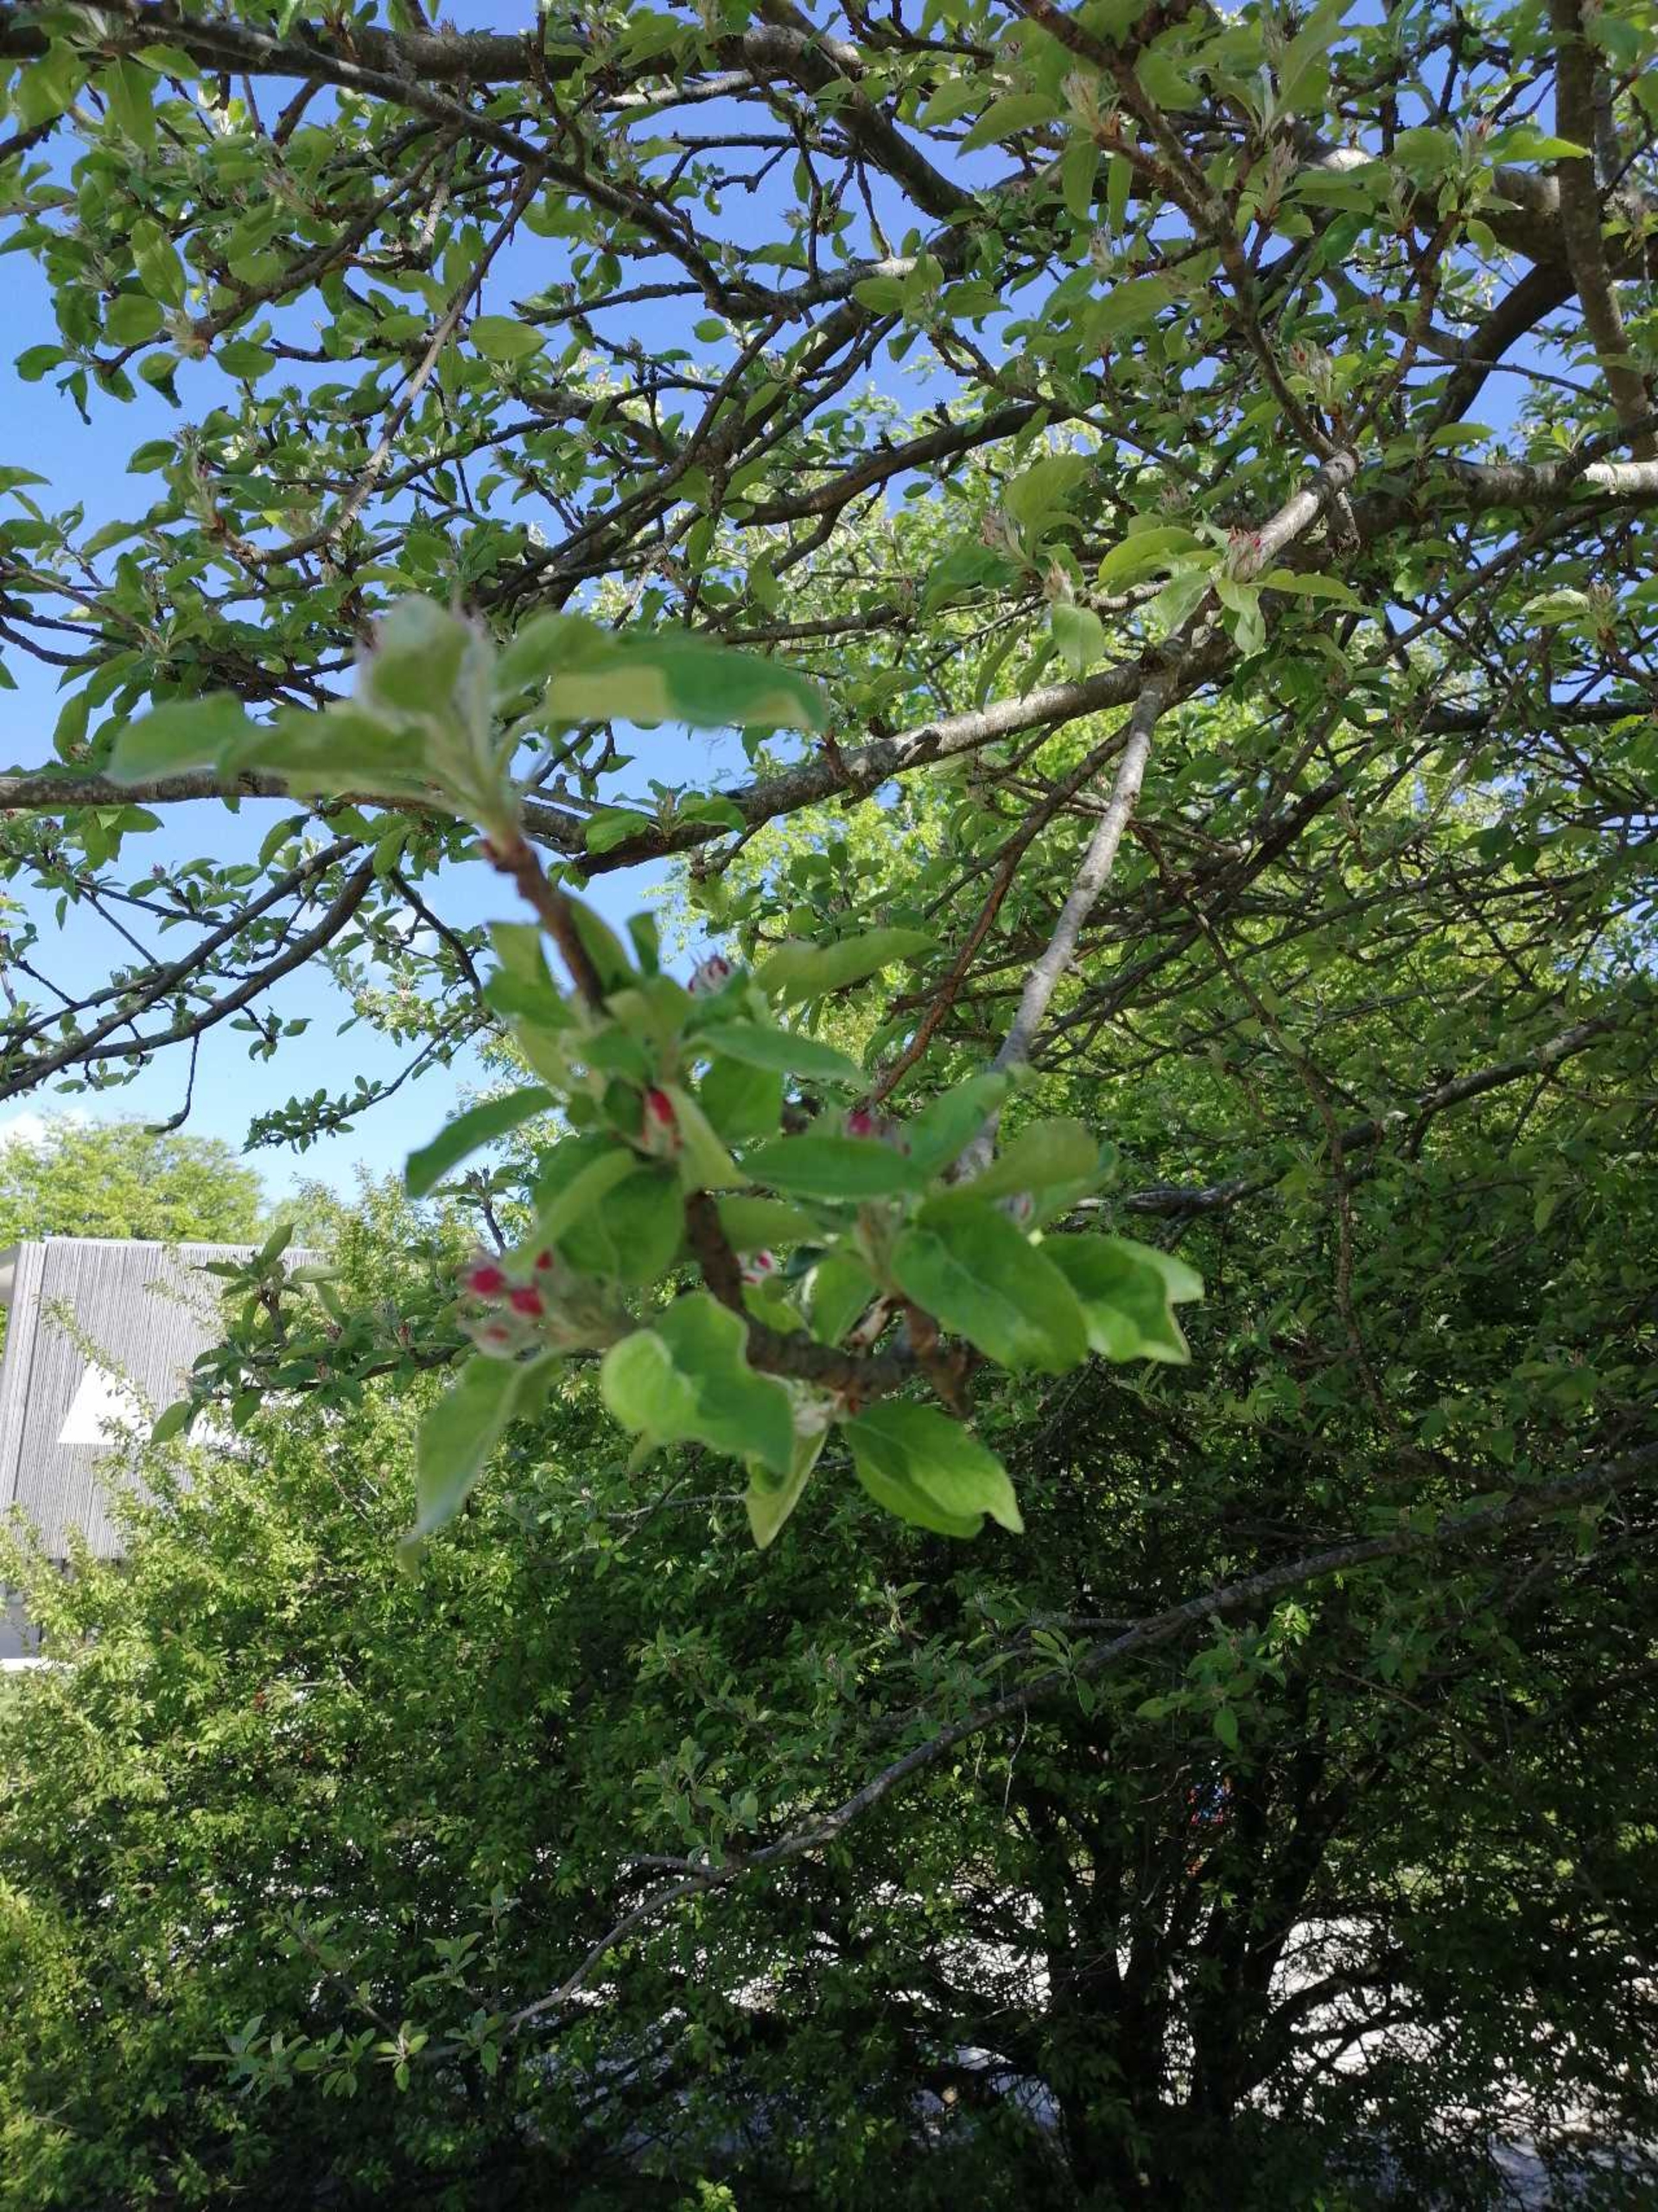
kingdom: Plantae
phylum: Tracheophyta
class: Magnoliopsida
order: Rosales
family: Rosaceae
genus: Malus
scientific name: Malus domestica
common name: Sød-æble
